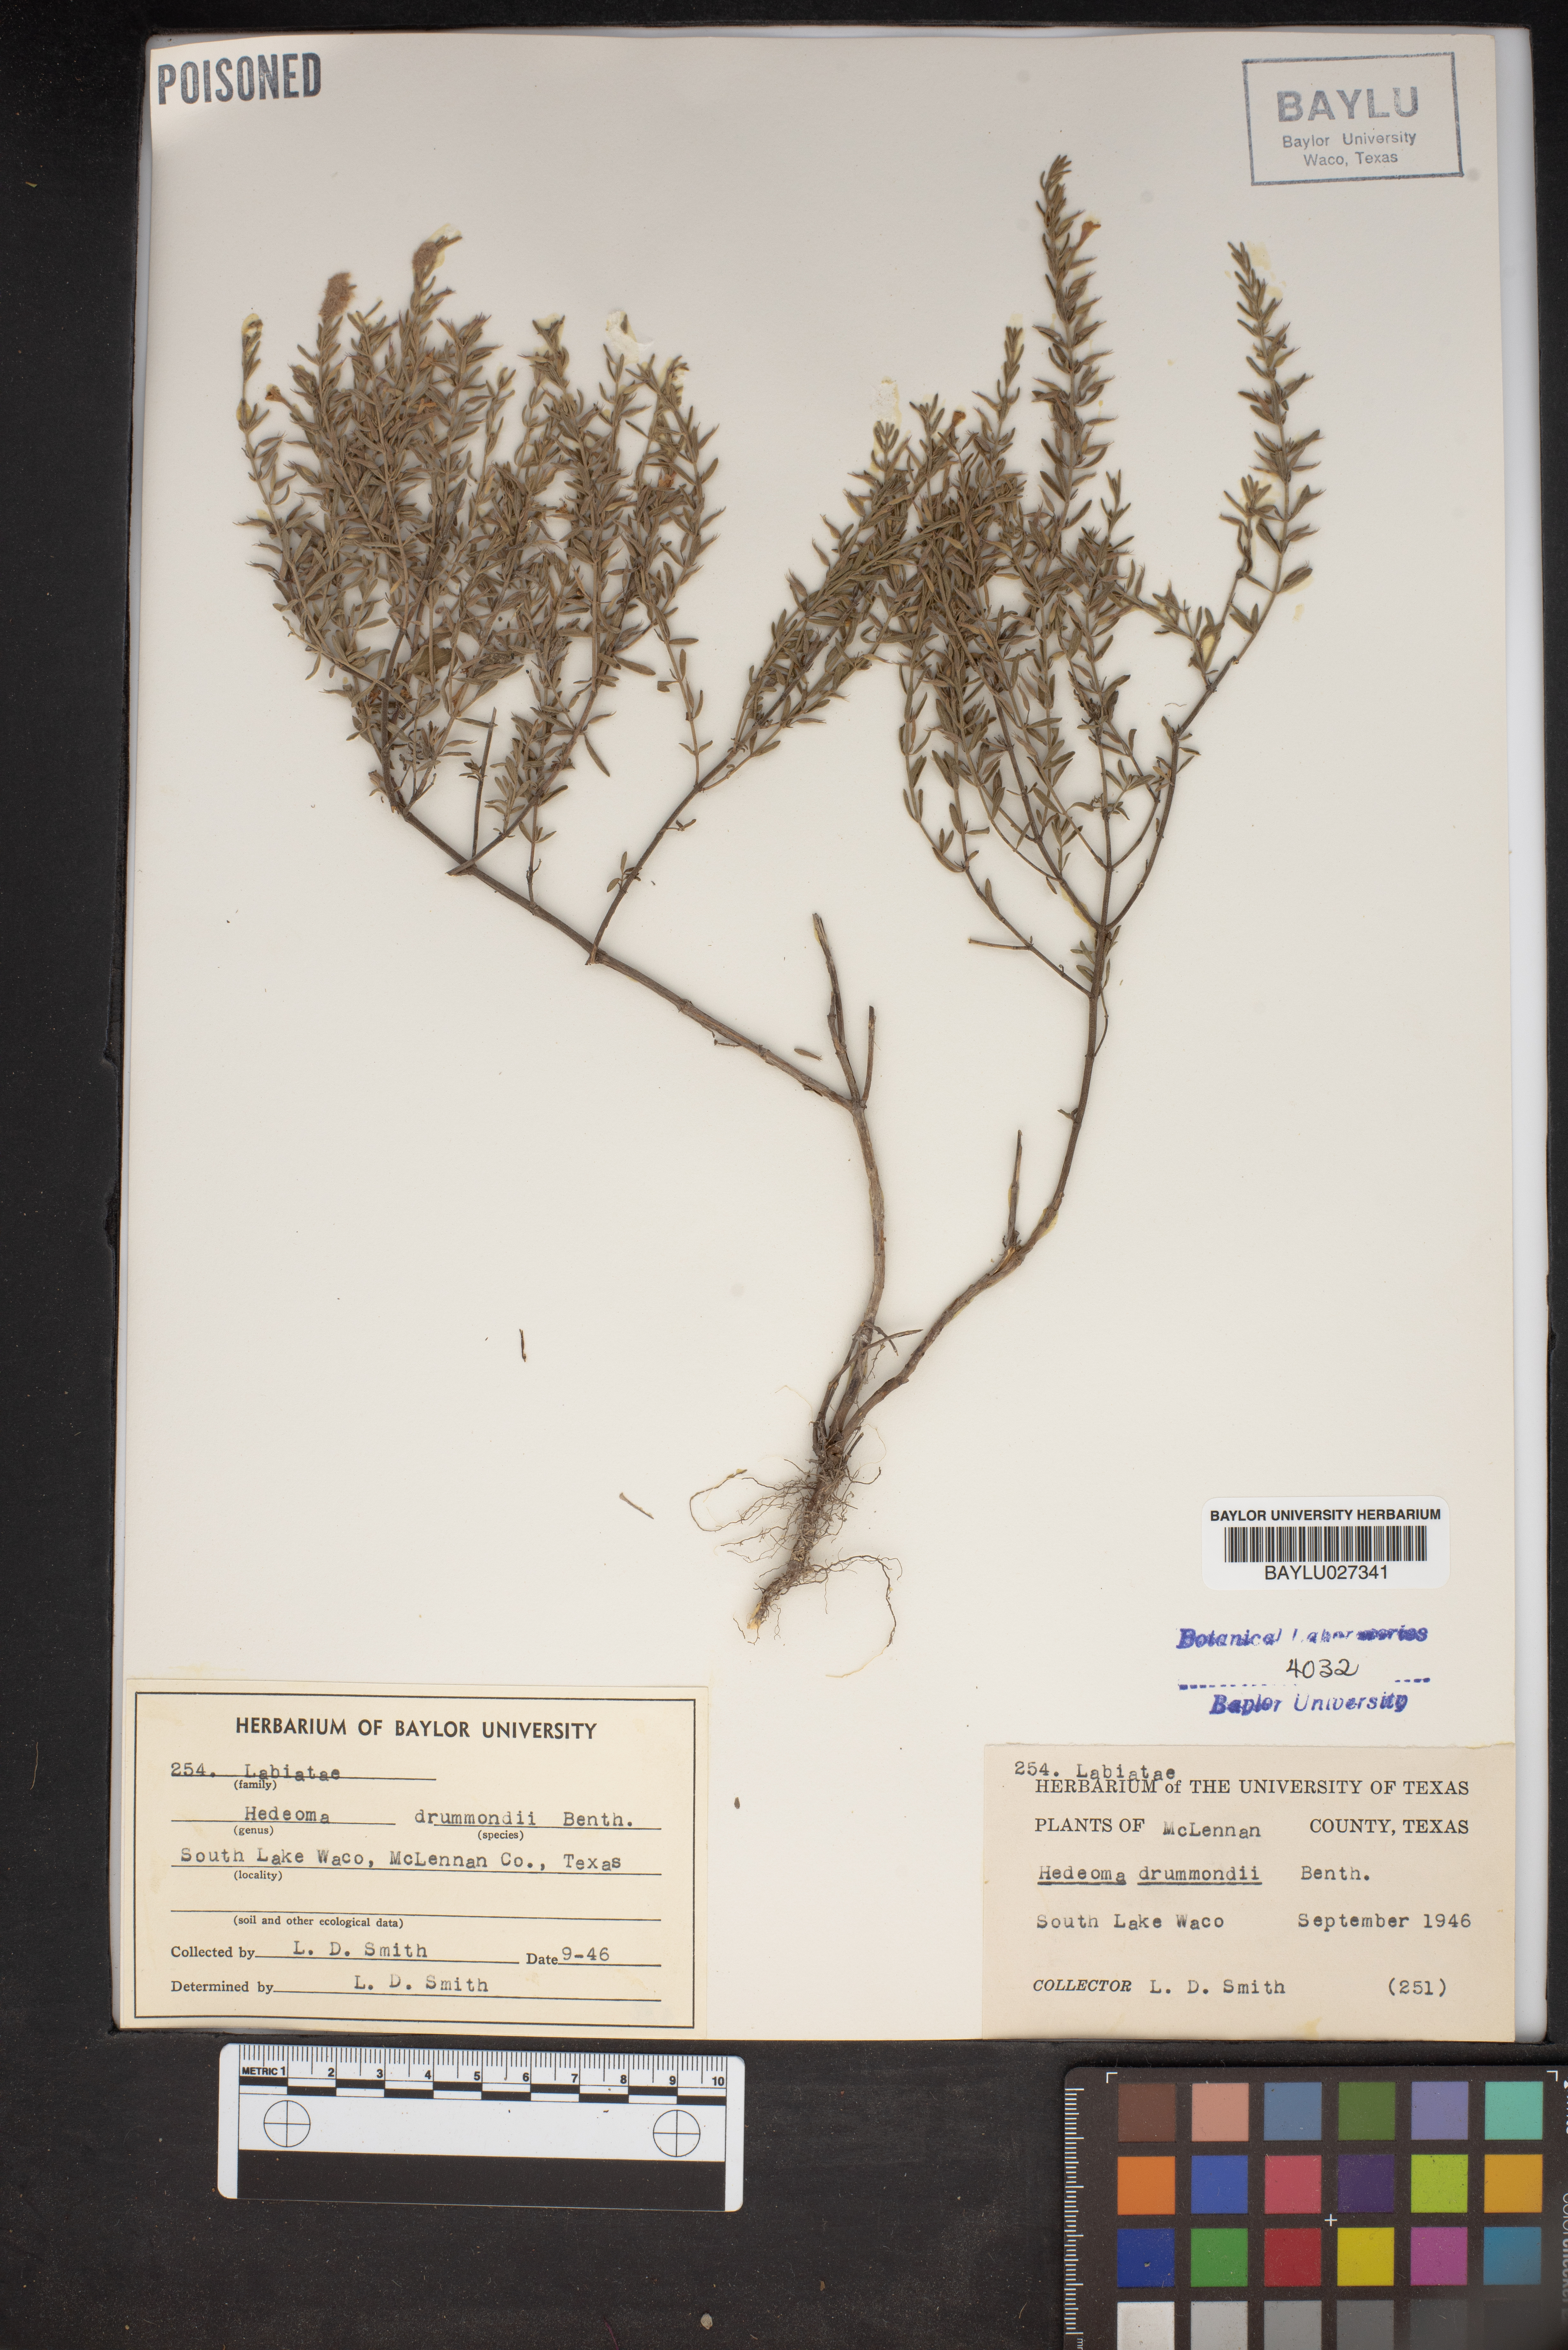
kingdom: Plantae
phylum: Tracheophyta
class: Magnoliopsida
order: Lamiales
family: Lamiaceae
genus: Hedeoma
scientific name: Hedeoma drummondii
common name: New mexico pennyroyal
